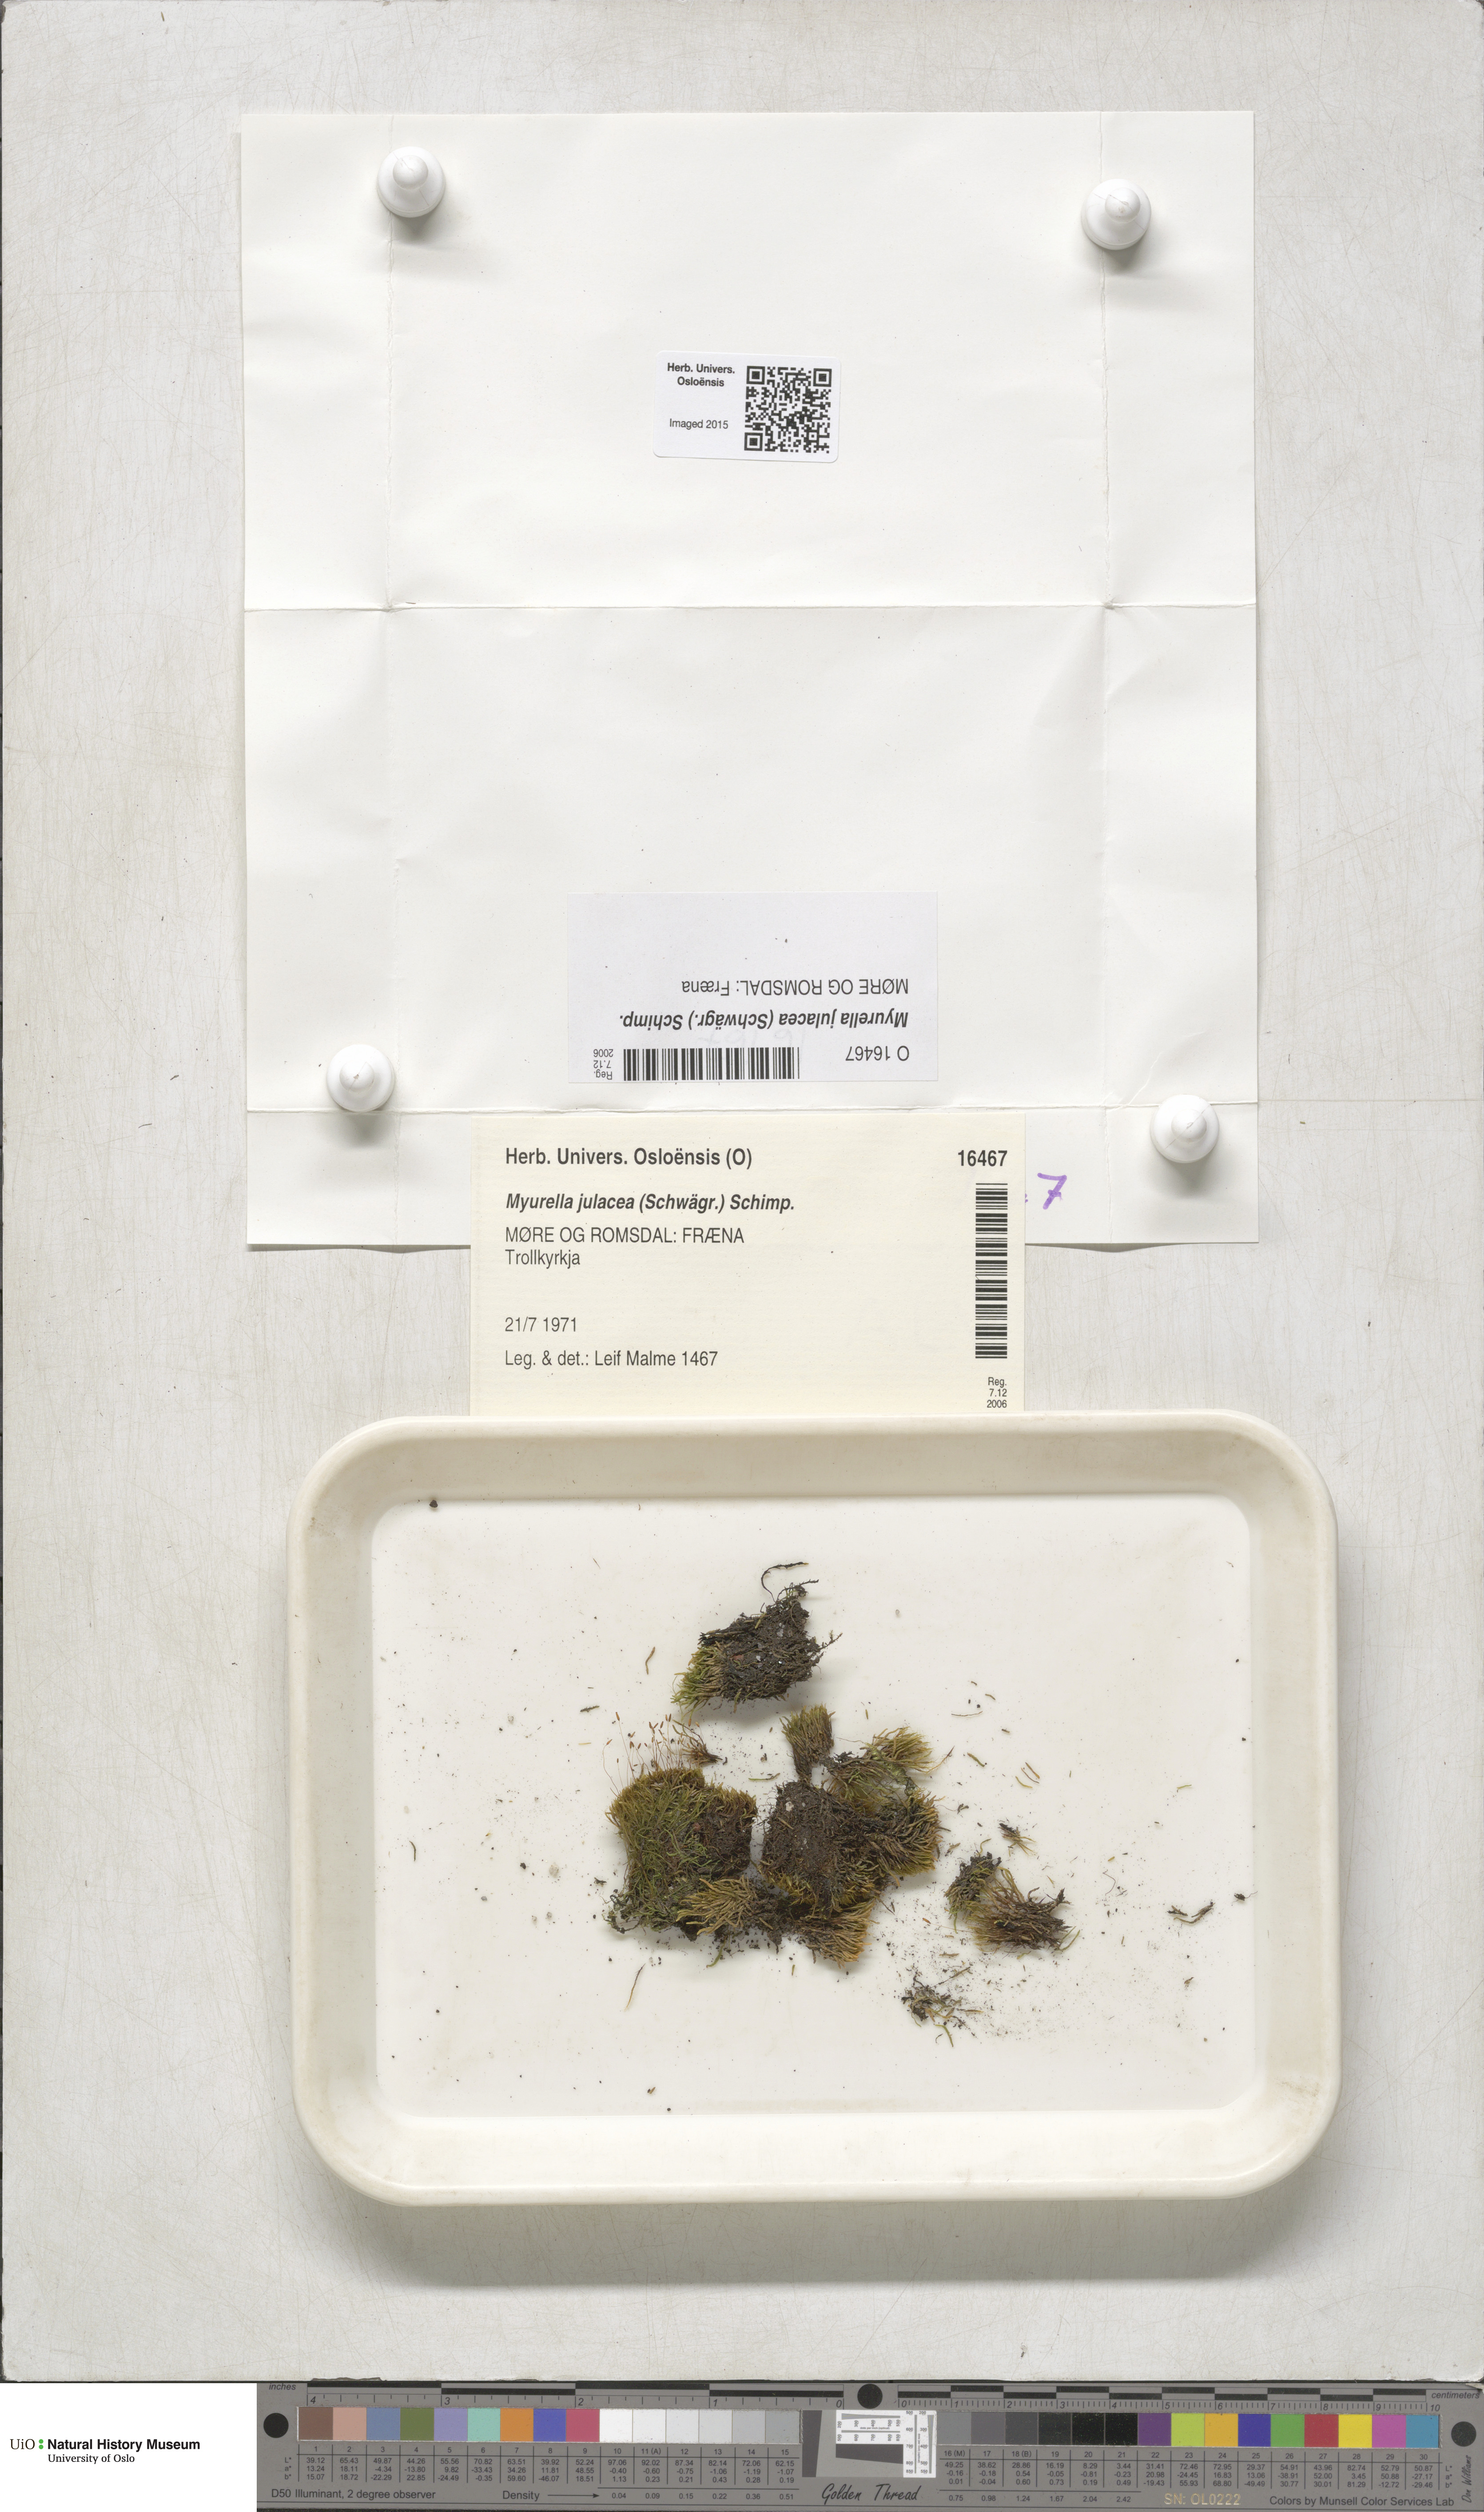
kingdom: Plantae
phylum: Bryophyta
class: Bryopsida
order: Hypnales
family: Plagiotheciaceae
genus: Myurella
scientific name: Myurella julacea
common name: Small mousetail moss
